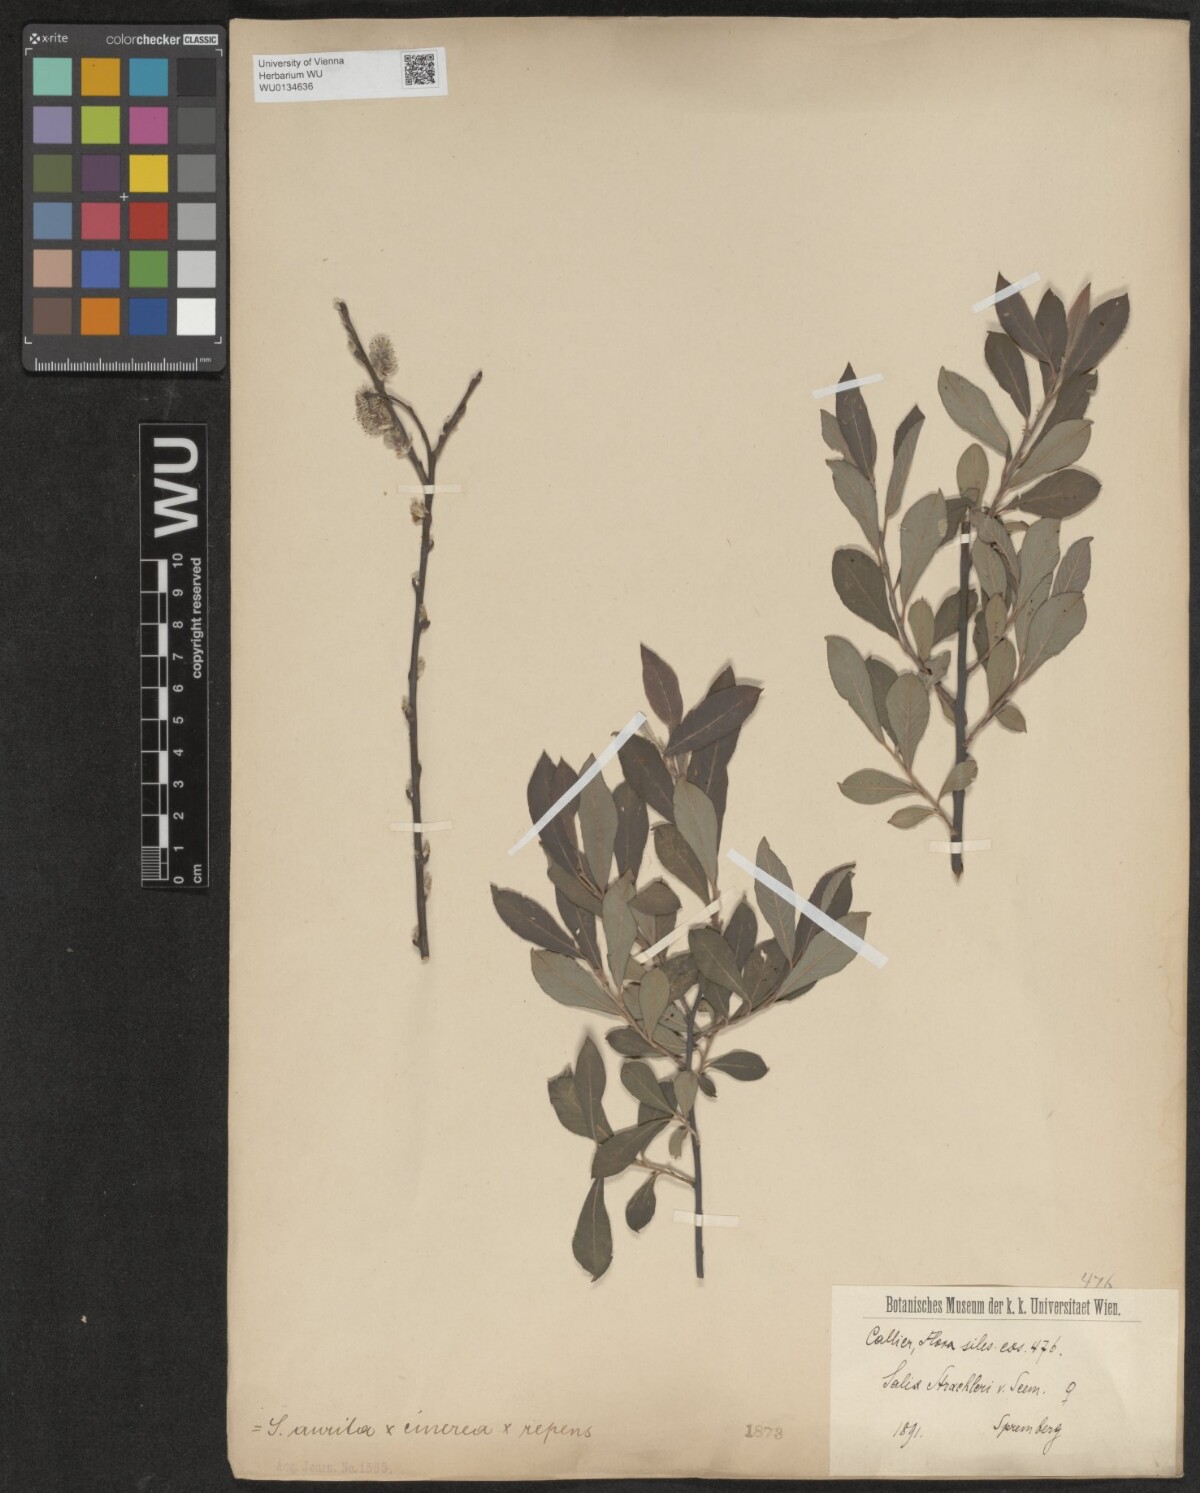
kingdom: Plantae
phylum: Tracheophyta
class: Magnoliopsida
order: Malpighiales
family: Salicaceae
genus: Salix
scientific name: Salix
